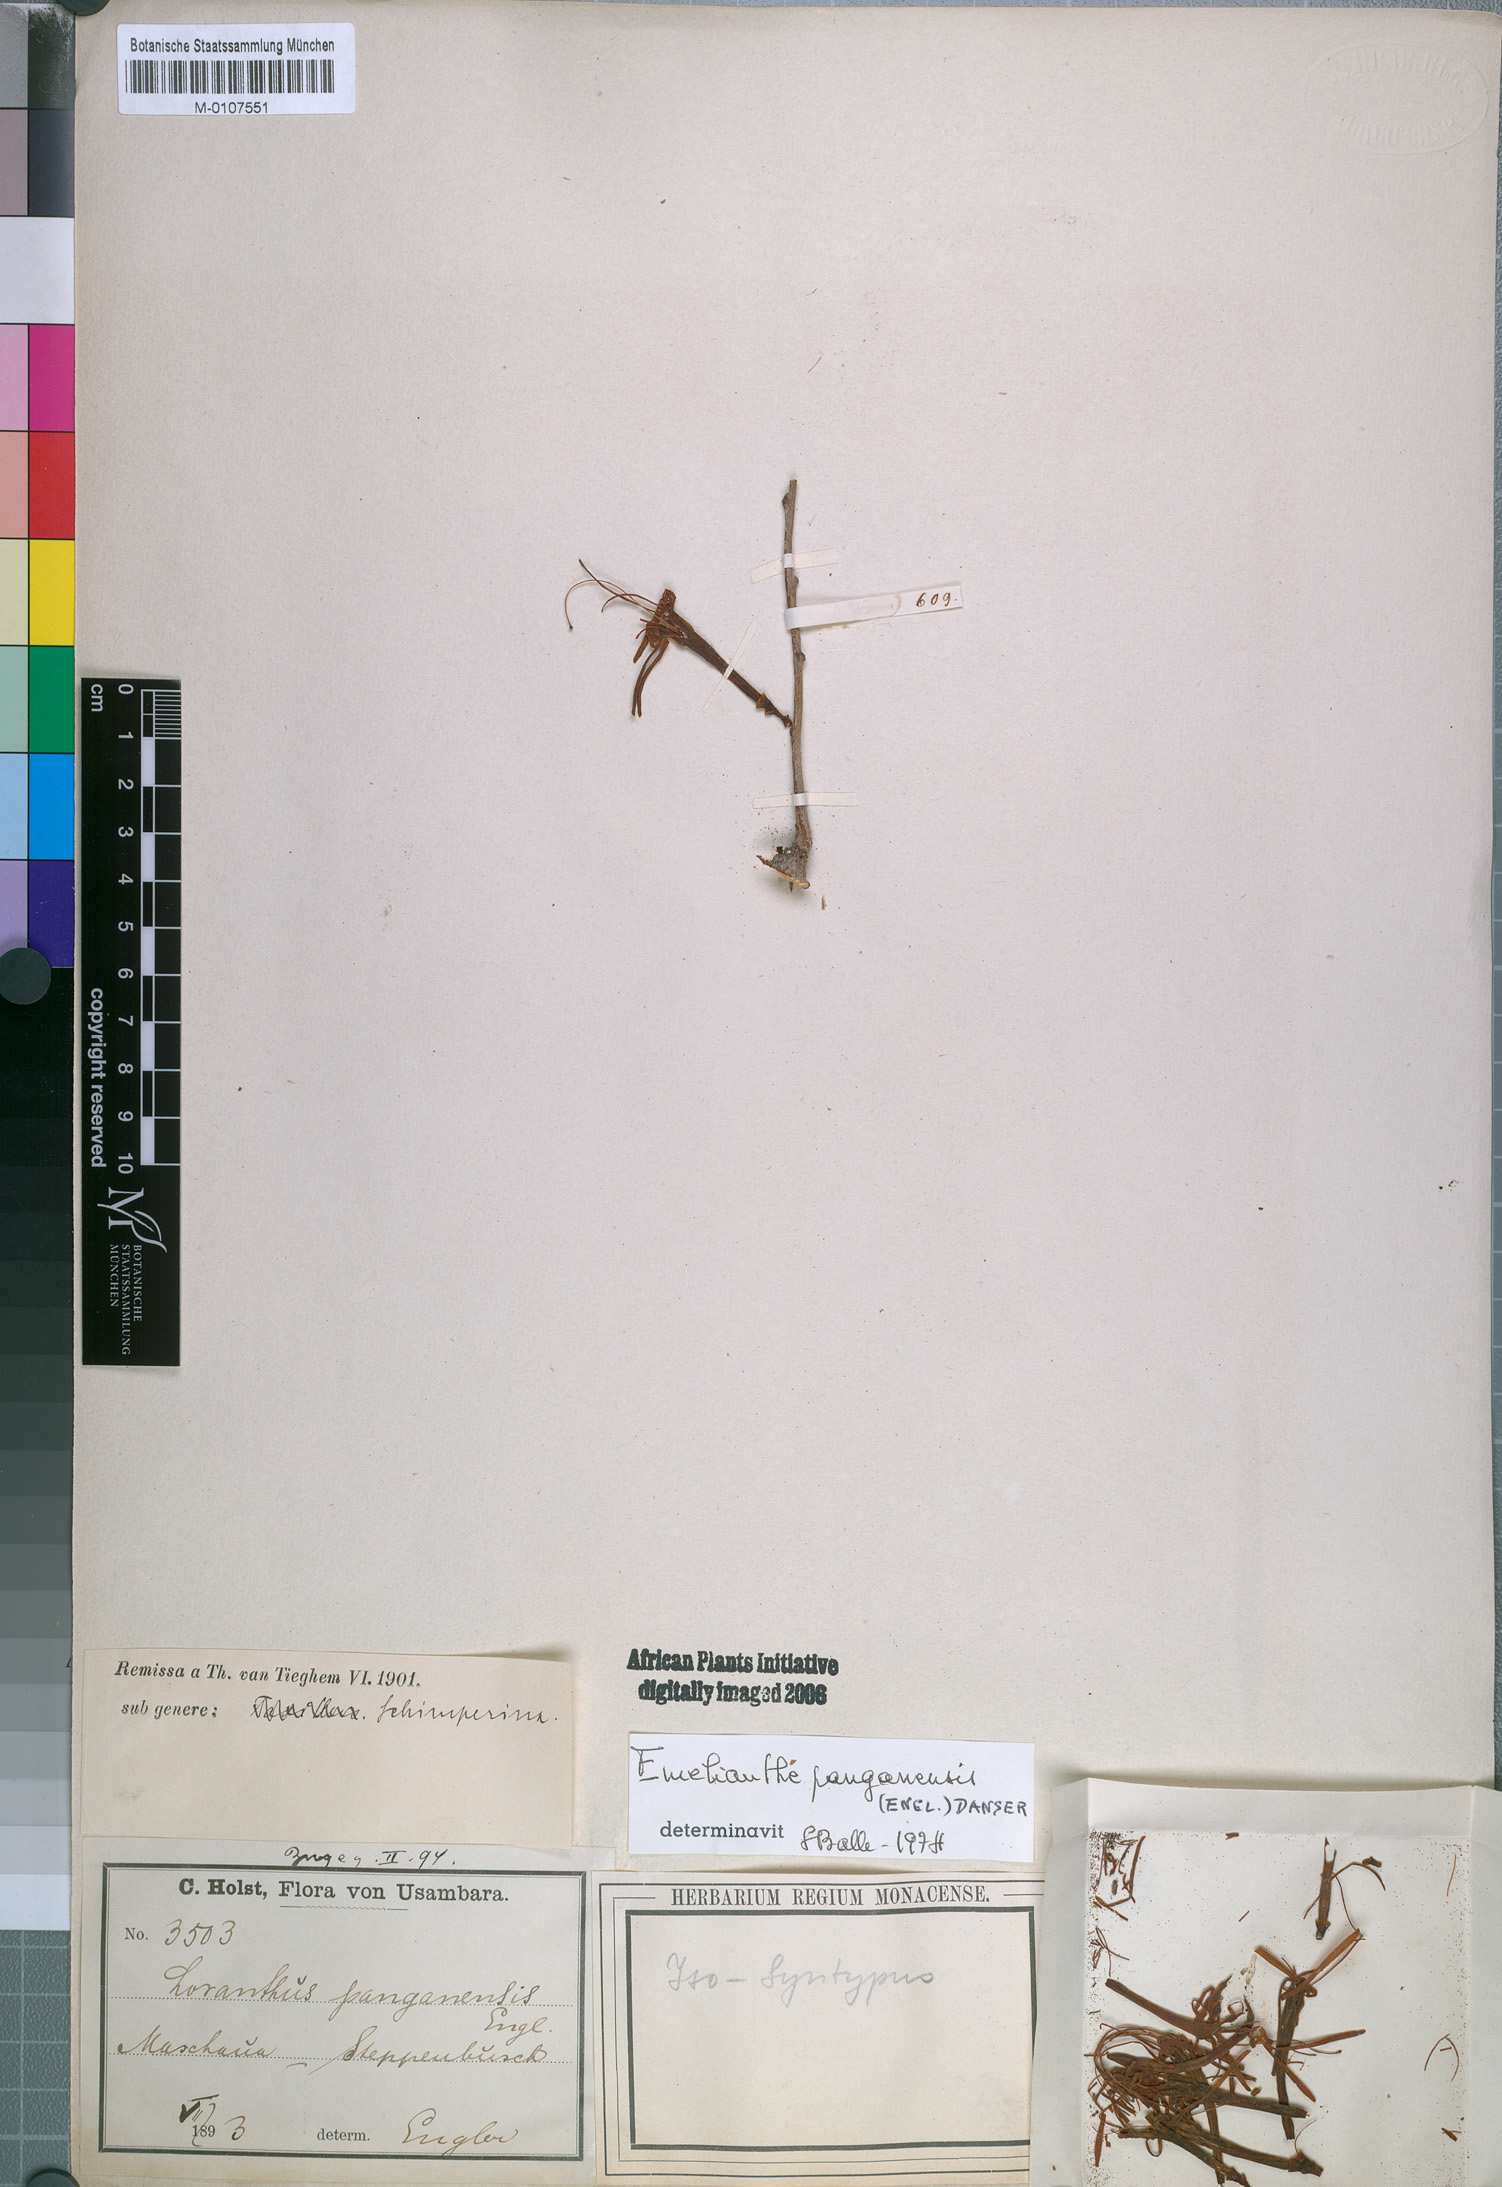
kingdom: Plantae
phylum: Tracheophyta
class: Magnoliopsida
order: Santalales
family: Loranthaceae
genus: Emelianthe
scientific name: Emelianthe panganensis
